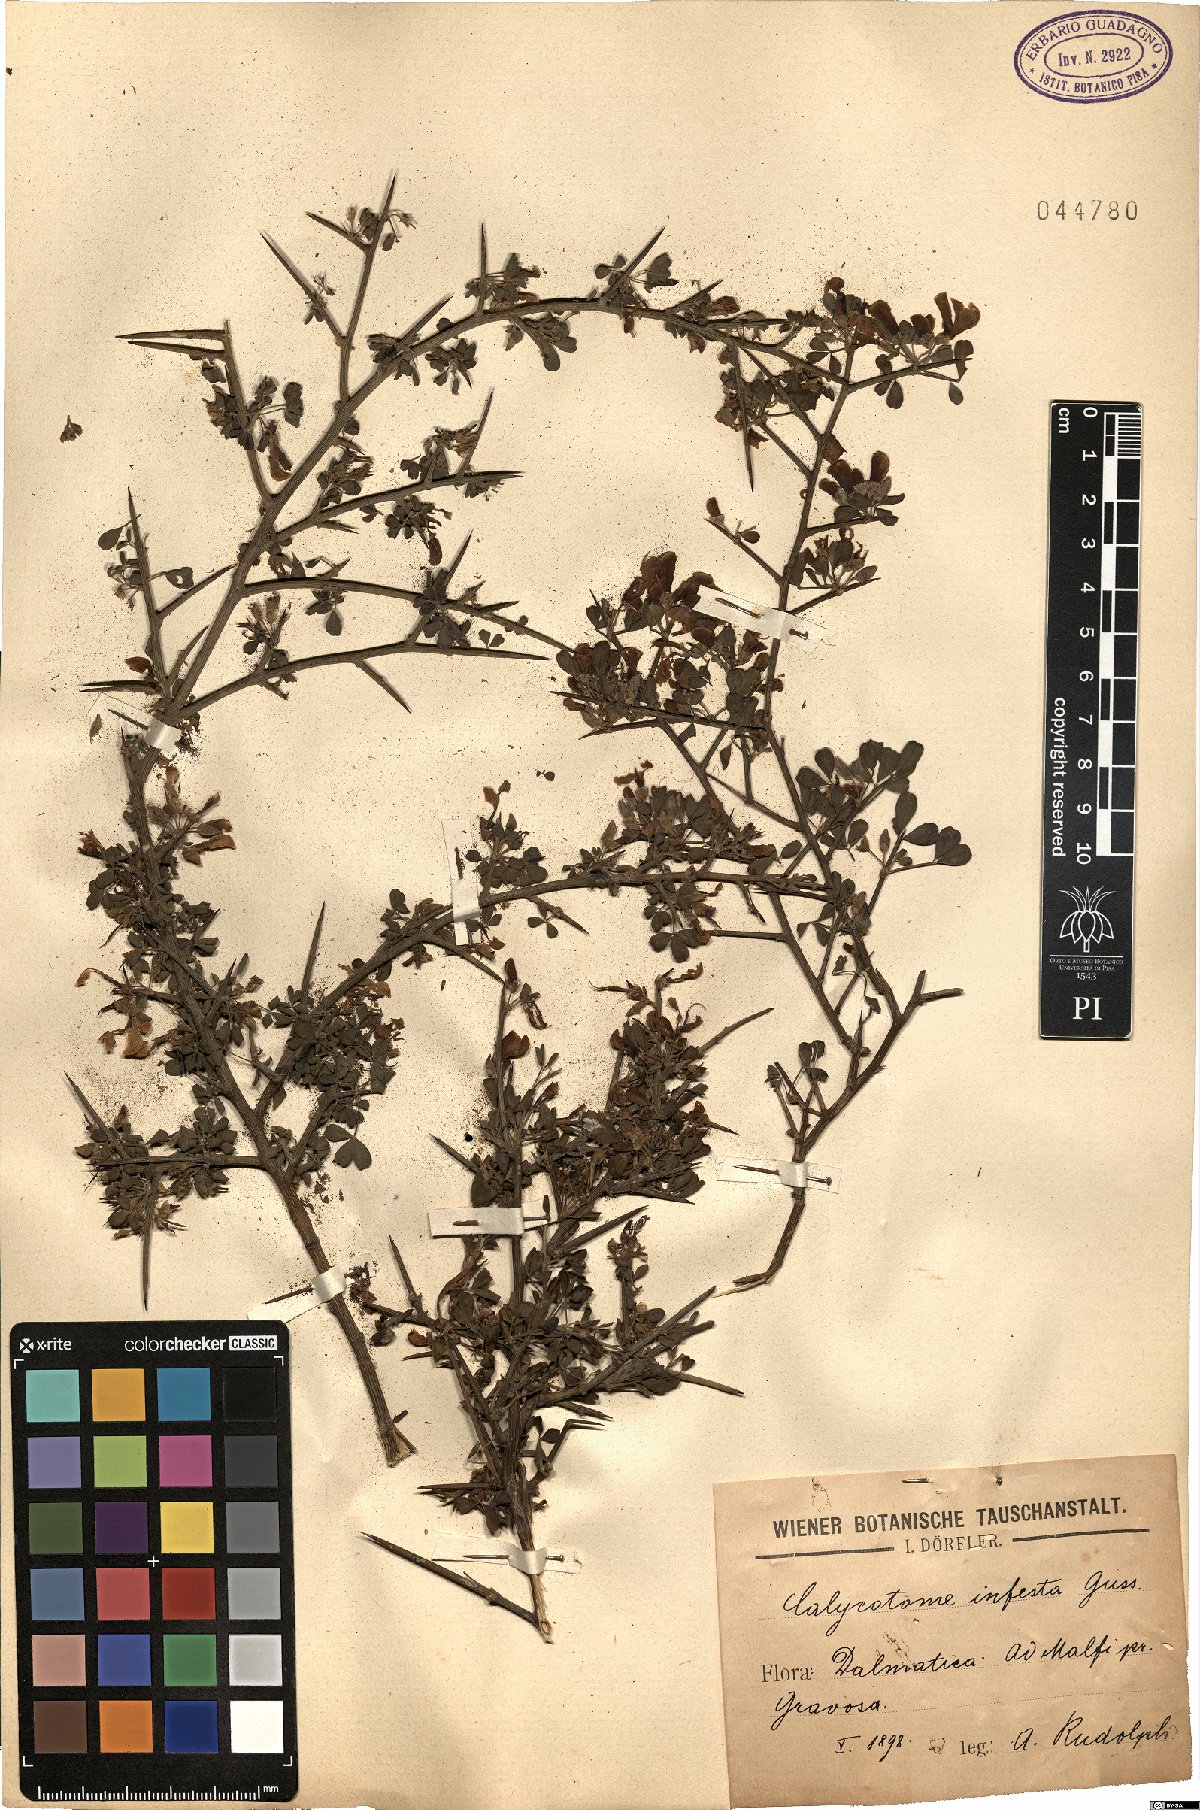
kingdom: Plantae
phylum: Tracheophyta
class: Magnoliopsida
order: Fabales
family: Fabaceae
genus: Calicotome
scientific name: Calicotome infesta
